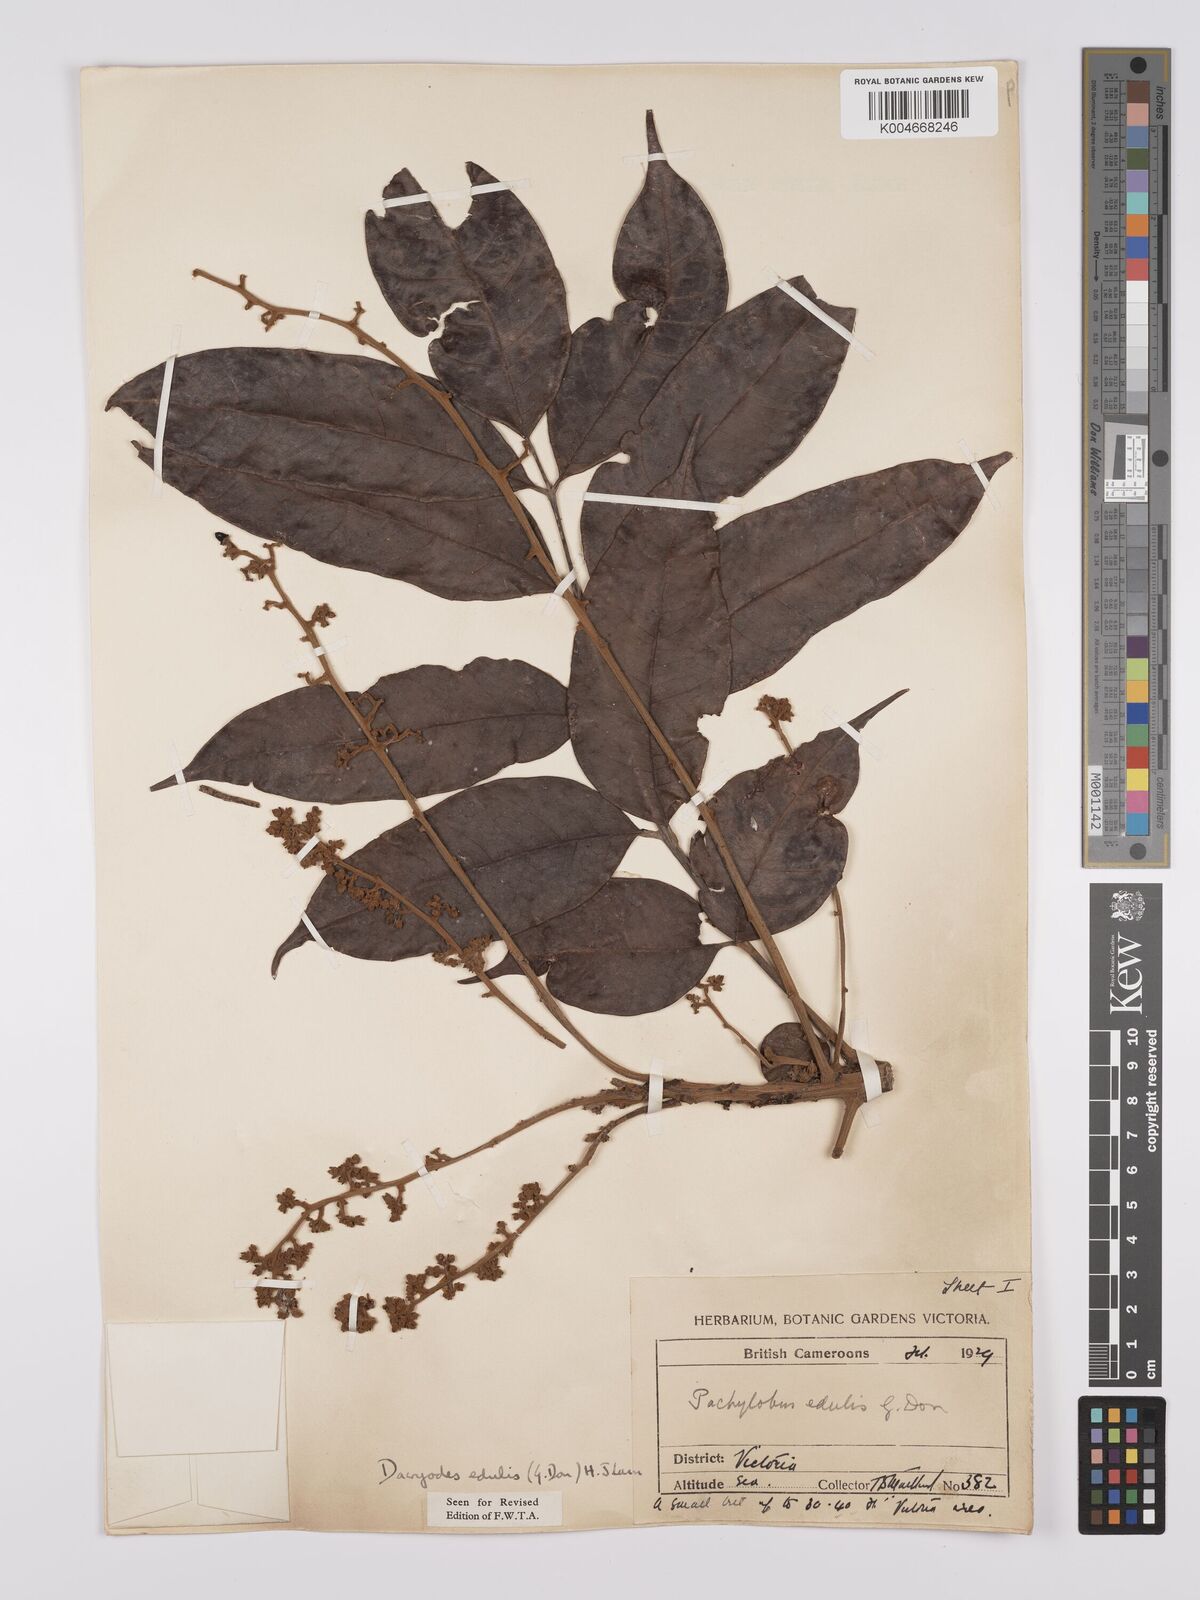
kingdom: Plantae
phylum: Tracheophyta
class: Magnoliopsida
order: Sapindales
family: Burseraceae
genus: Pachylobus
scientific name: Pachylobus edulis
